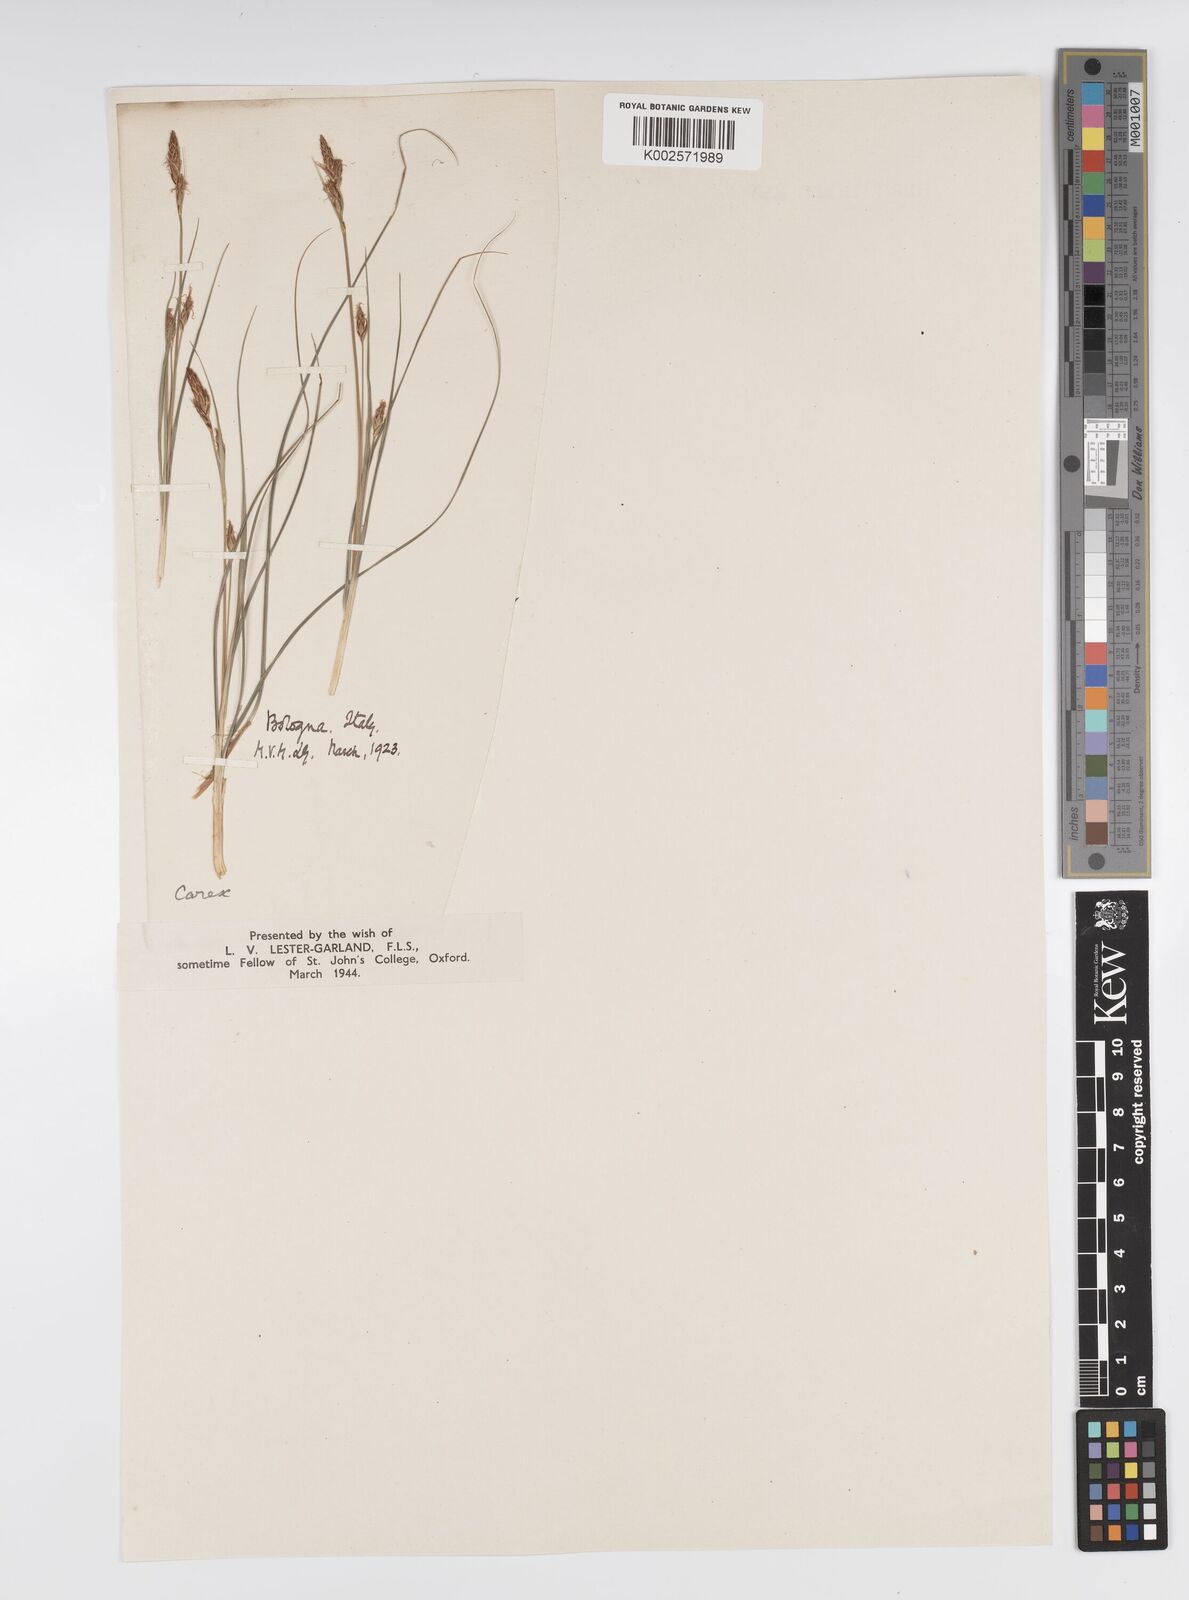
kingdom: Plantae
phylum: Tracheophyta
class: Liliopsida
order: Poales
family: Cyperaceae
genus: Carex
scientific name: Carex halleriana
